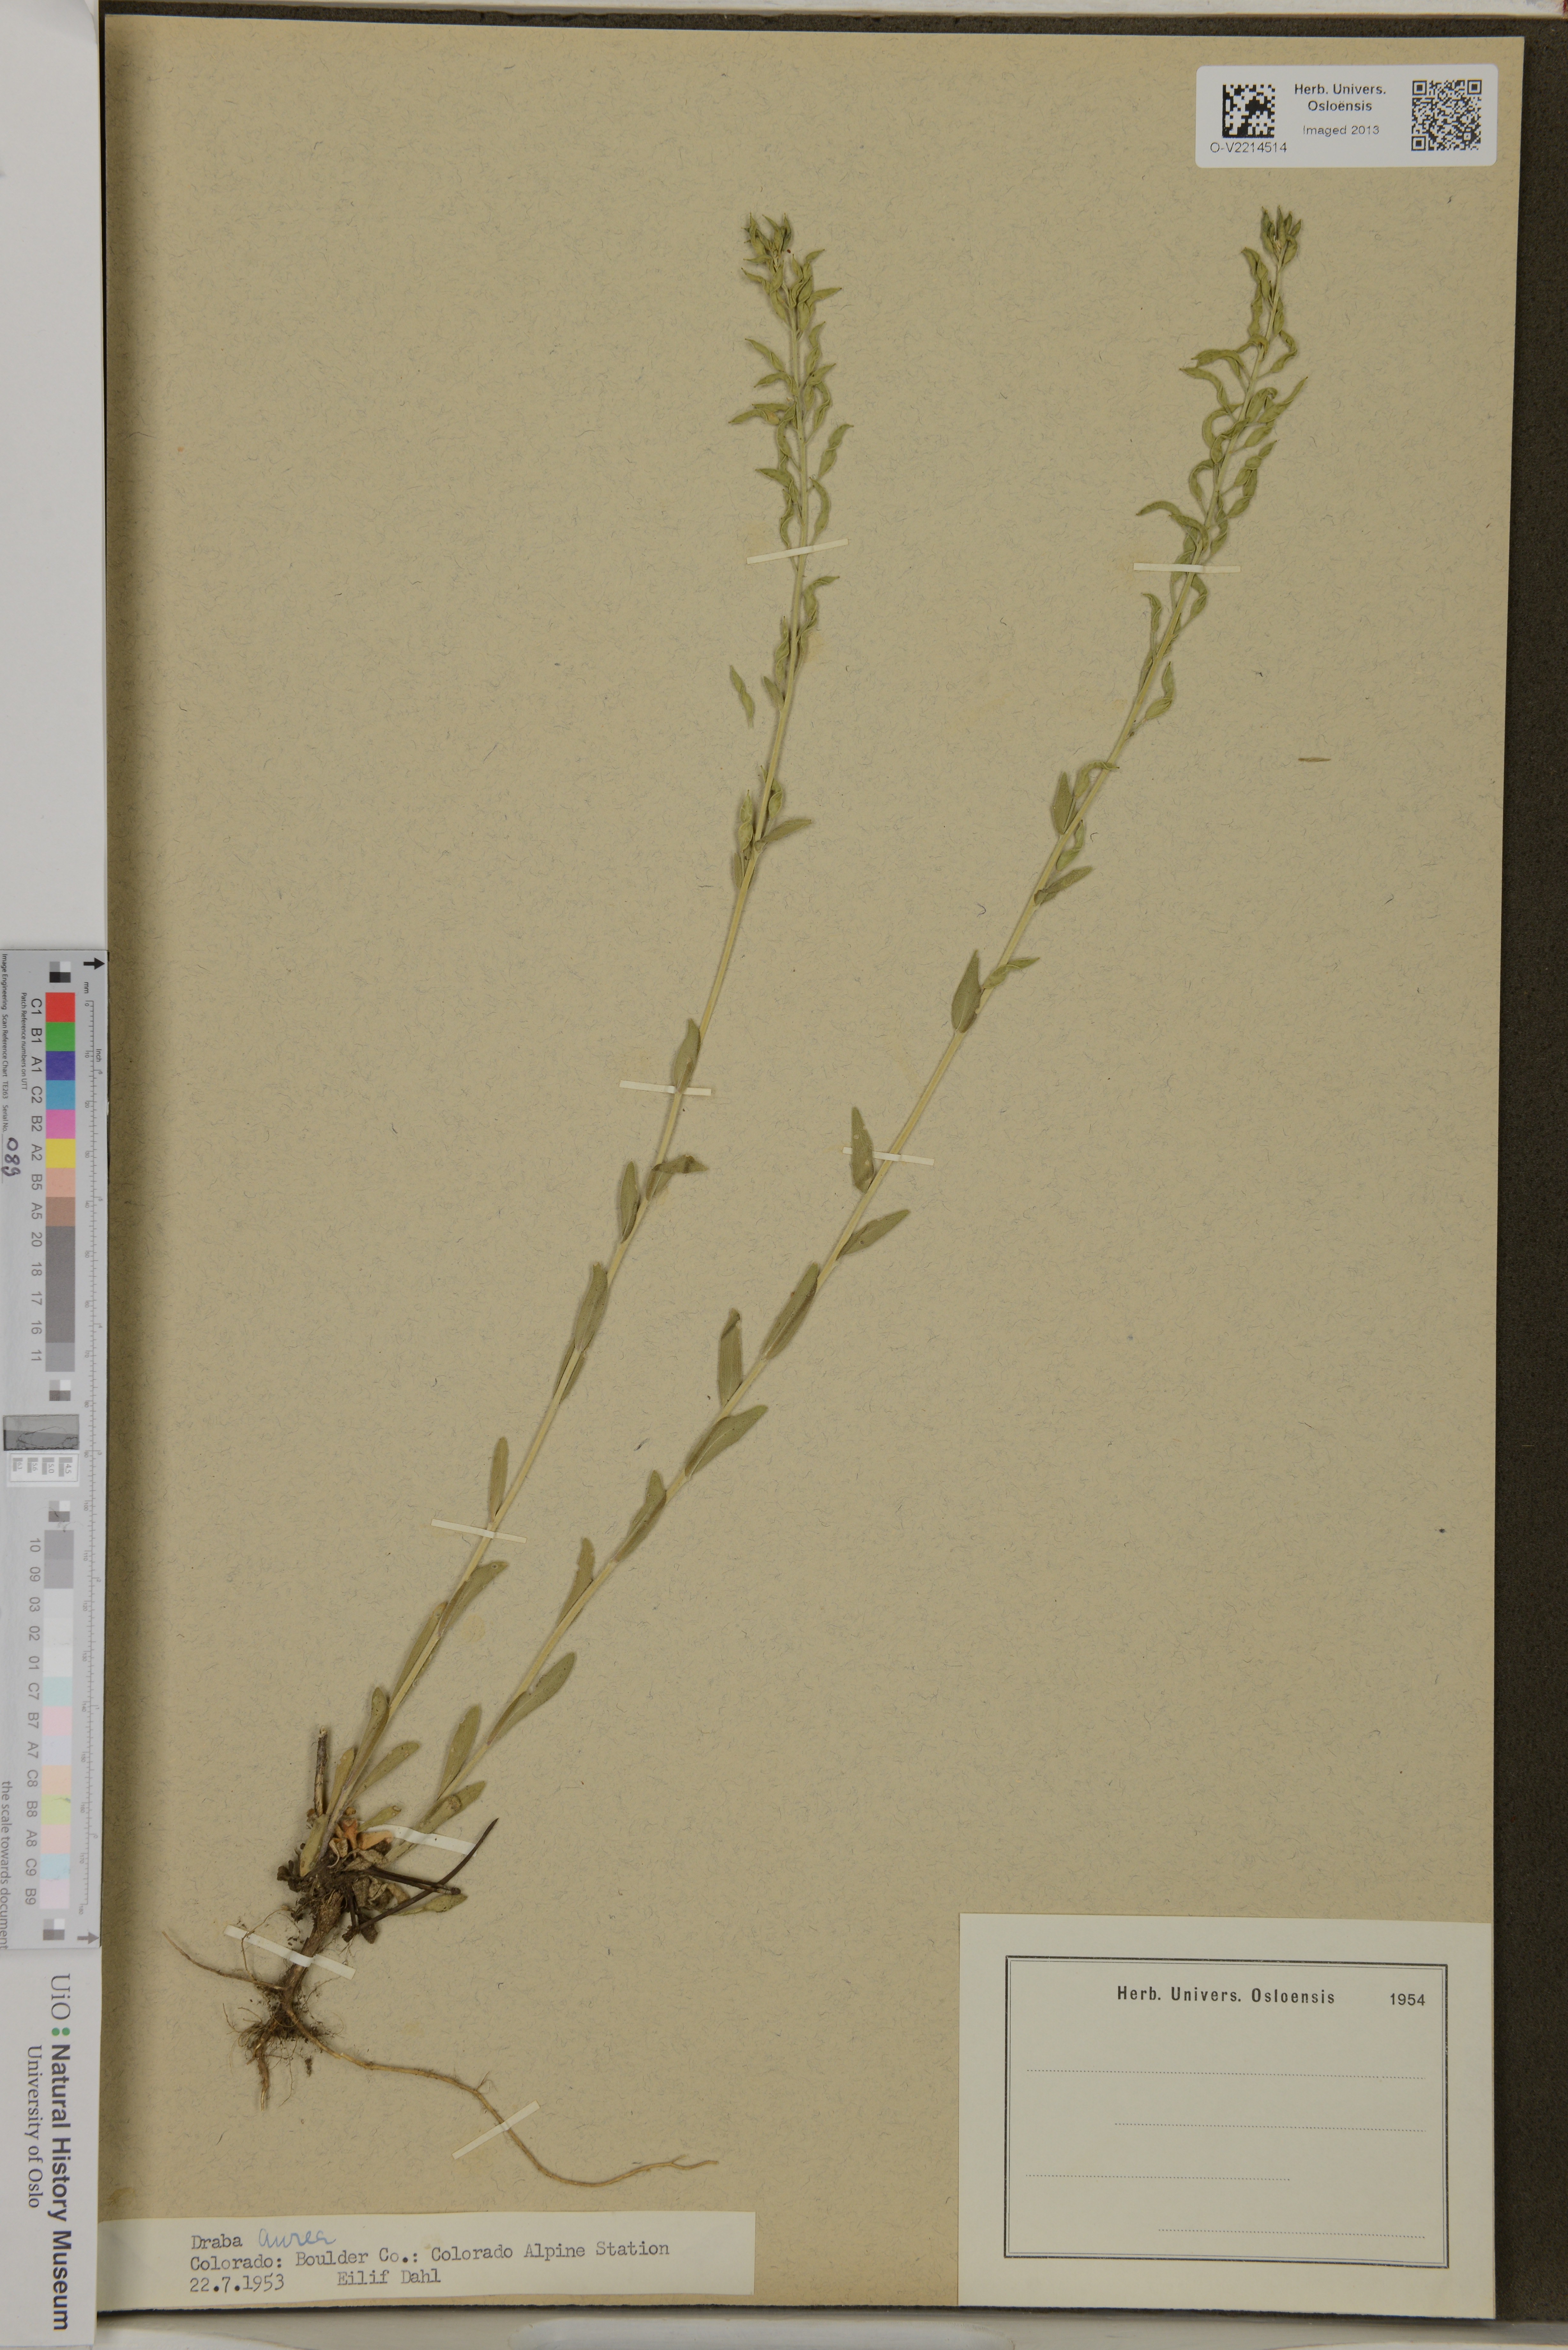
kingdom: Plantae
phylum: Tracheophyta
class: Magnoliopsida
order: Brassicales
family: Brassicaceae
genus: Draba
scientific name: Draba aurea
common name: Golden draba
